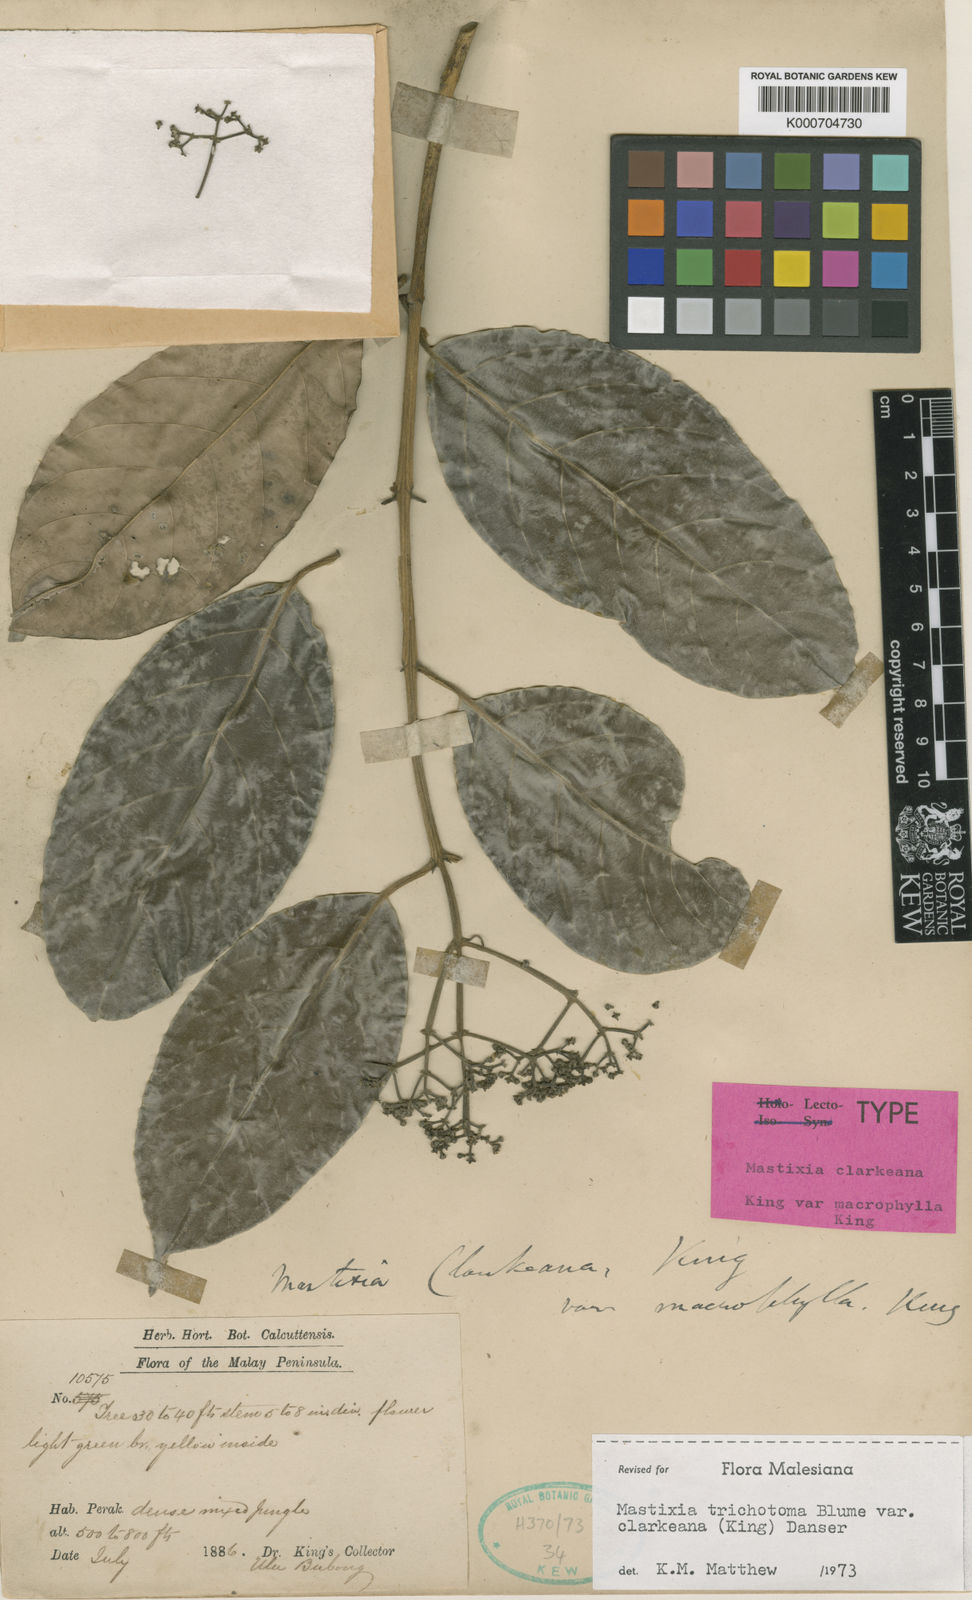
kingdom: Plantae
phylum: Tracheophyta
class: Magnoliopsida
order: Cornales
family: Nyssaceae
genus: Mastixia
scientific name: Mastixia trichotoma
